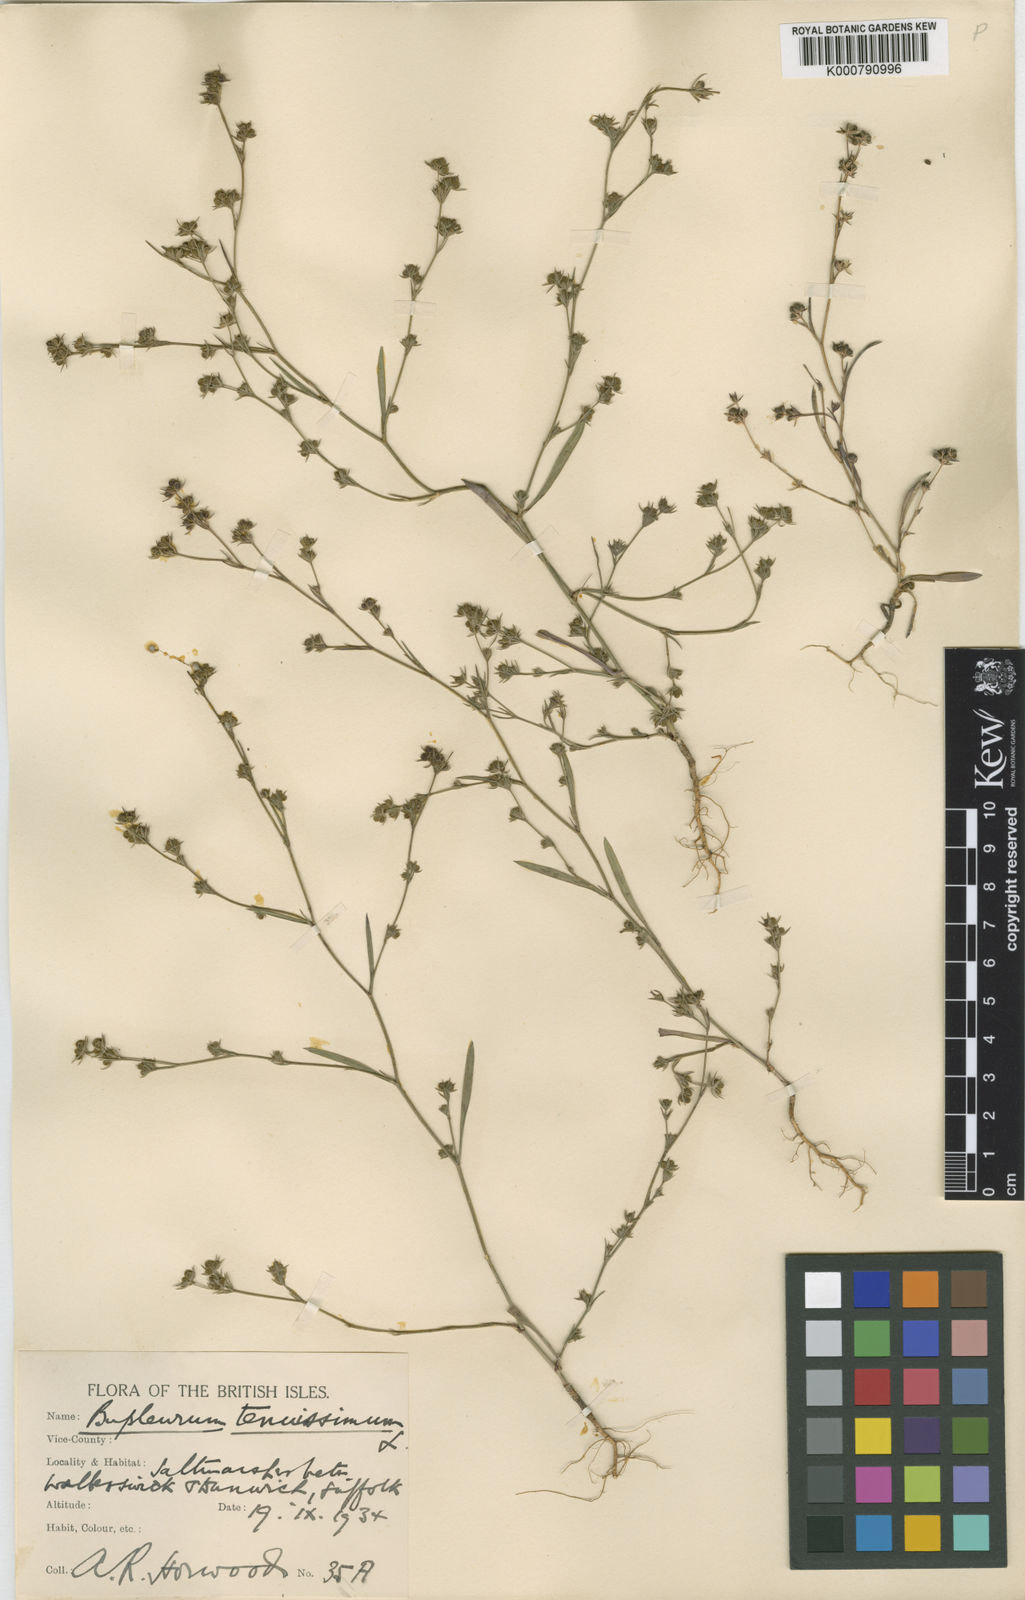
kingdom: Plantae
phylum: Tracheophyta
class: Magnoliopsida
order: Apiales
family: Apiaceae
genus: Bupleurum
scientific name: Bupleurum tenuissimum
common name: Slender hare's-ear
